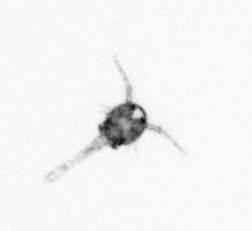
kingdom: Animalia
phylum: Arthropoda
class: Copepoda
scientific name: Copepoda
